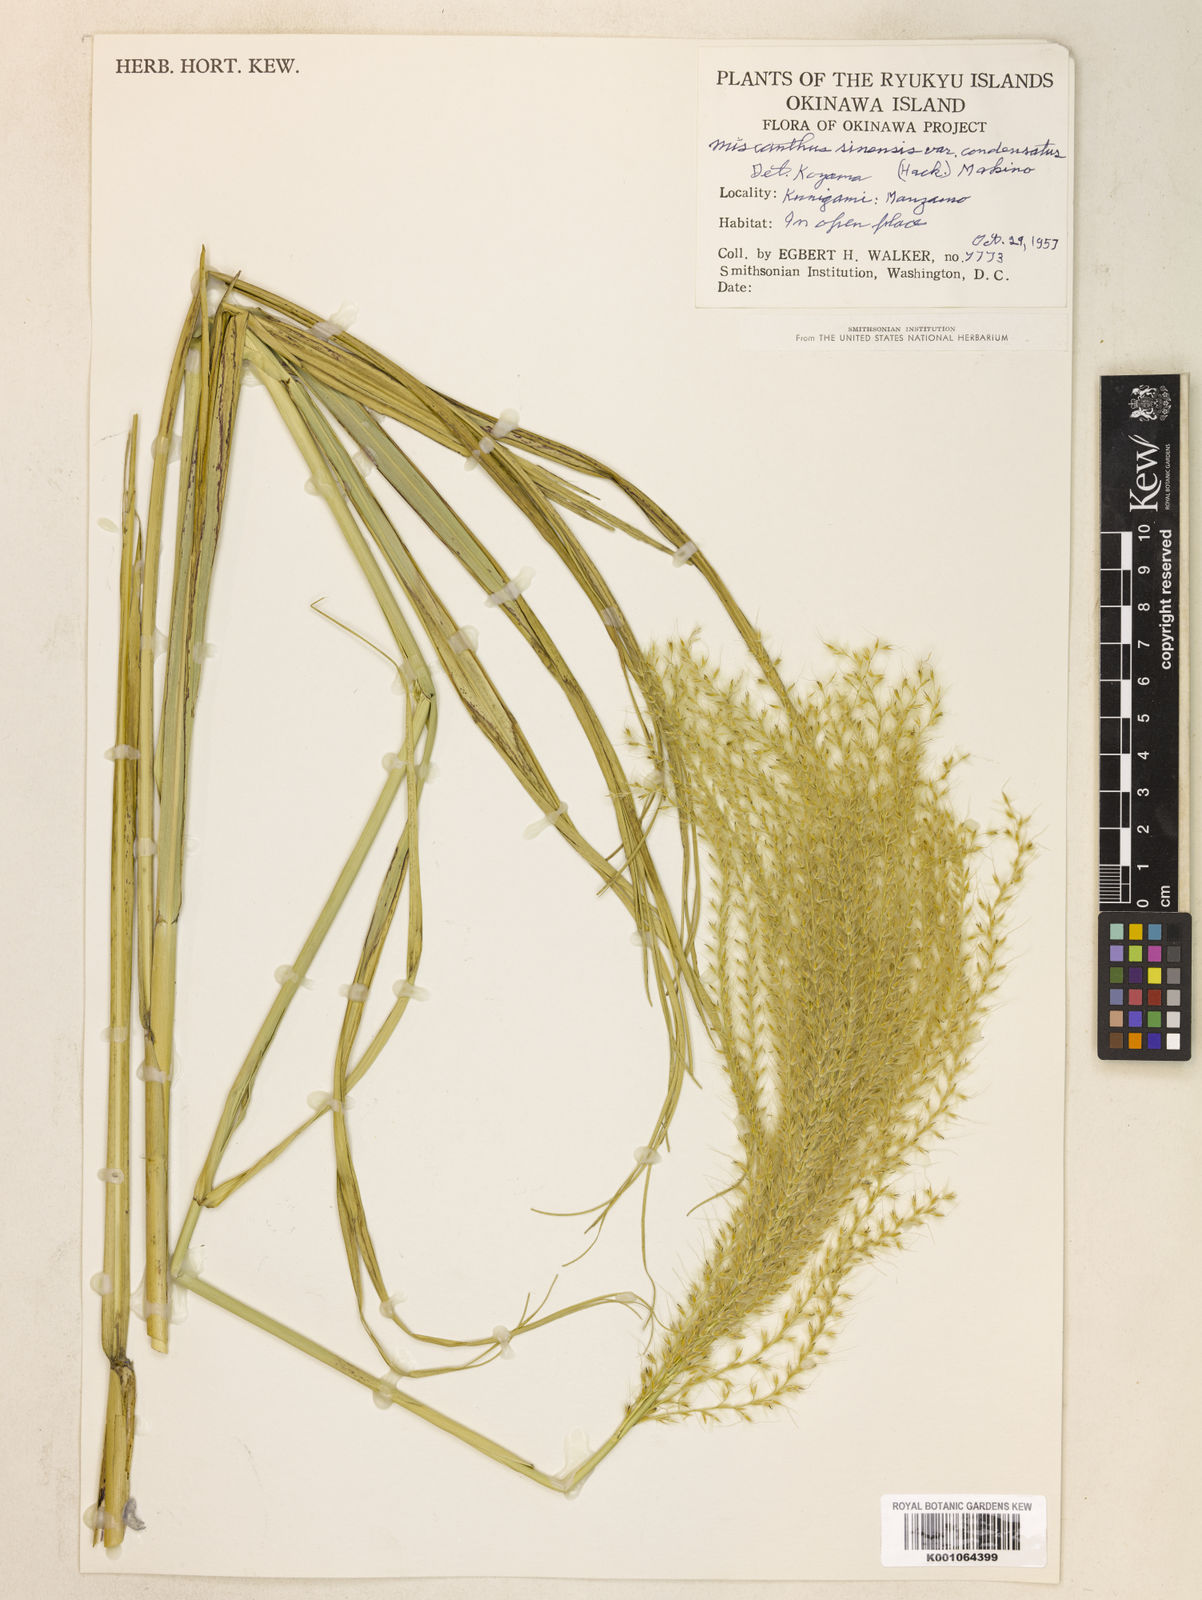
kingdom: Plantae
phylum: Tracheophyta
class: Liliopsida
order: Poales
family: Poaceae
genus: Miscanthus
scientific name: Miscanthus sinensis
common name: Chinese silvergrass
